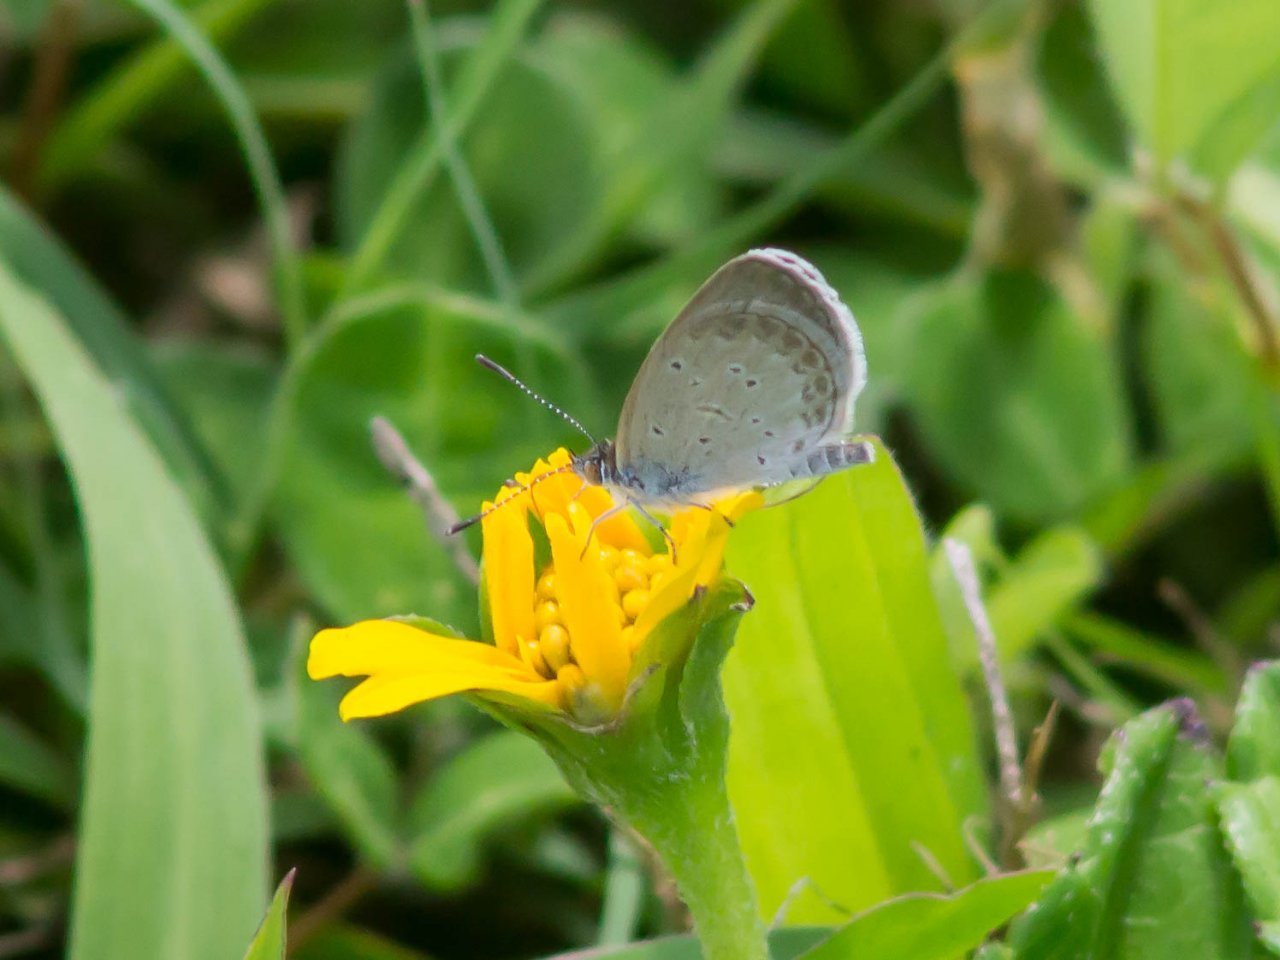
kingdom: Animalia
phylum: Arthropoda
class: Insecta
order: Lepidoptera
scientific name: Lepidoptera
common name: Butterflies
